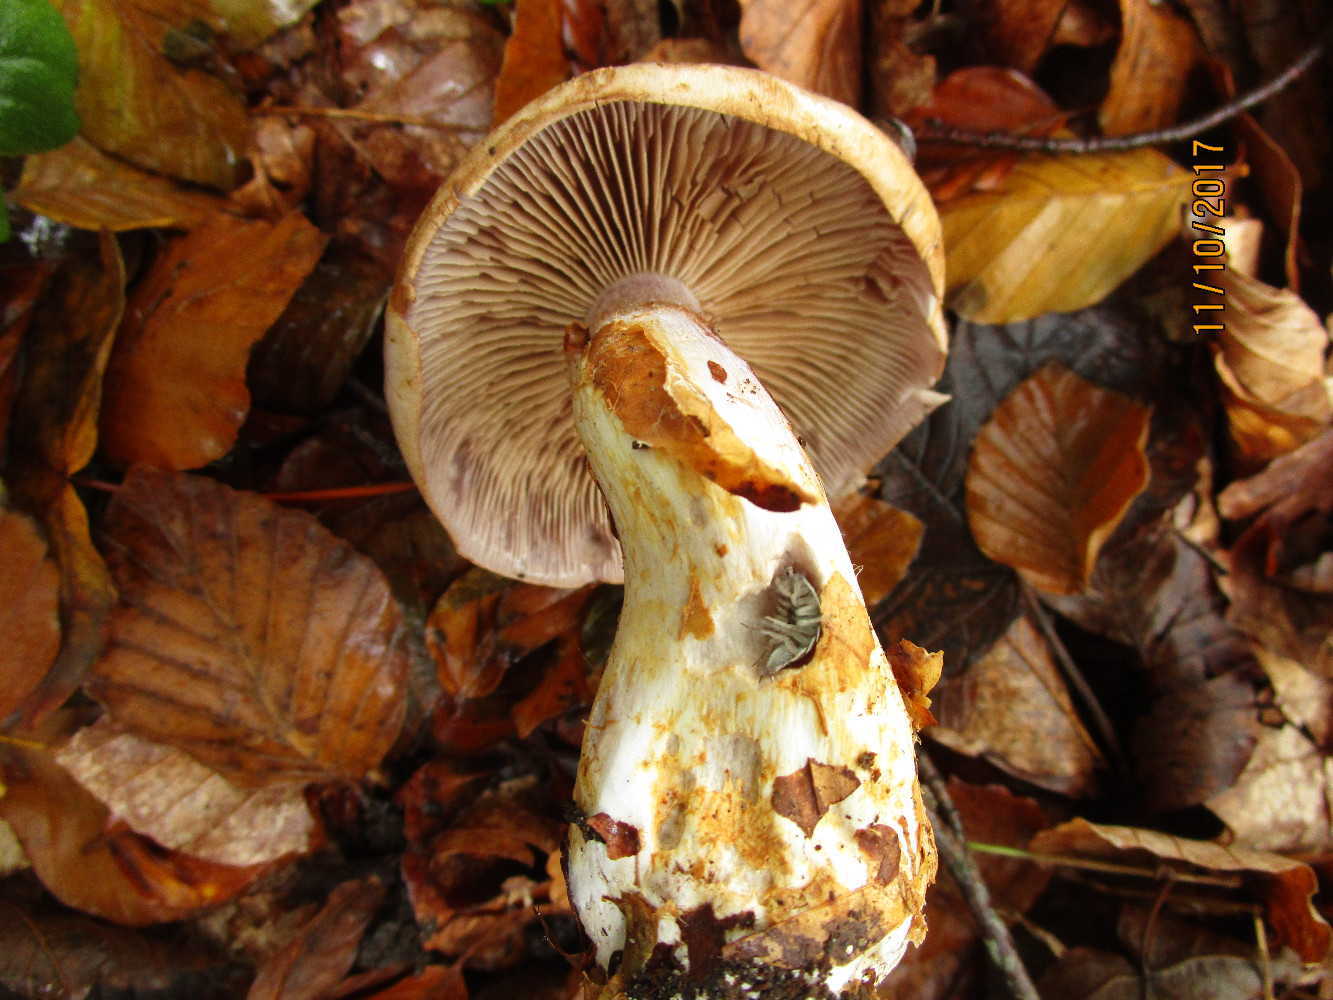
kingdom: Fungi
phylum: Basidiomycota
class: Agaricomycetes
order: Agaricales
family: Cortinariaceae
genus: Cortinarius
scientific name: Cortinarius variecolor
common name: violetagtig slørhat
